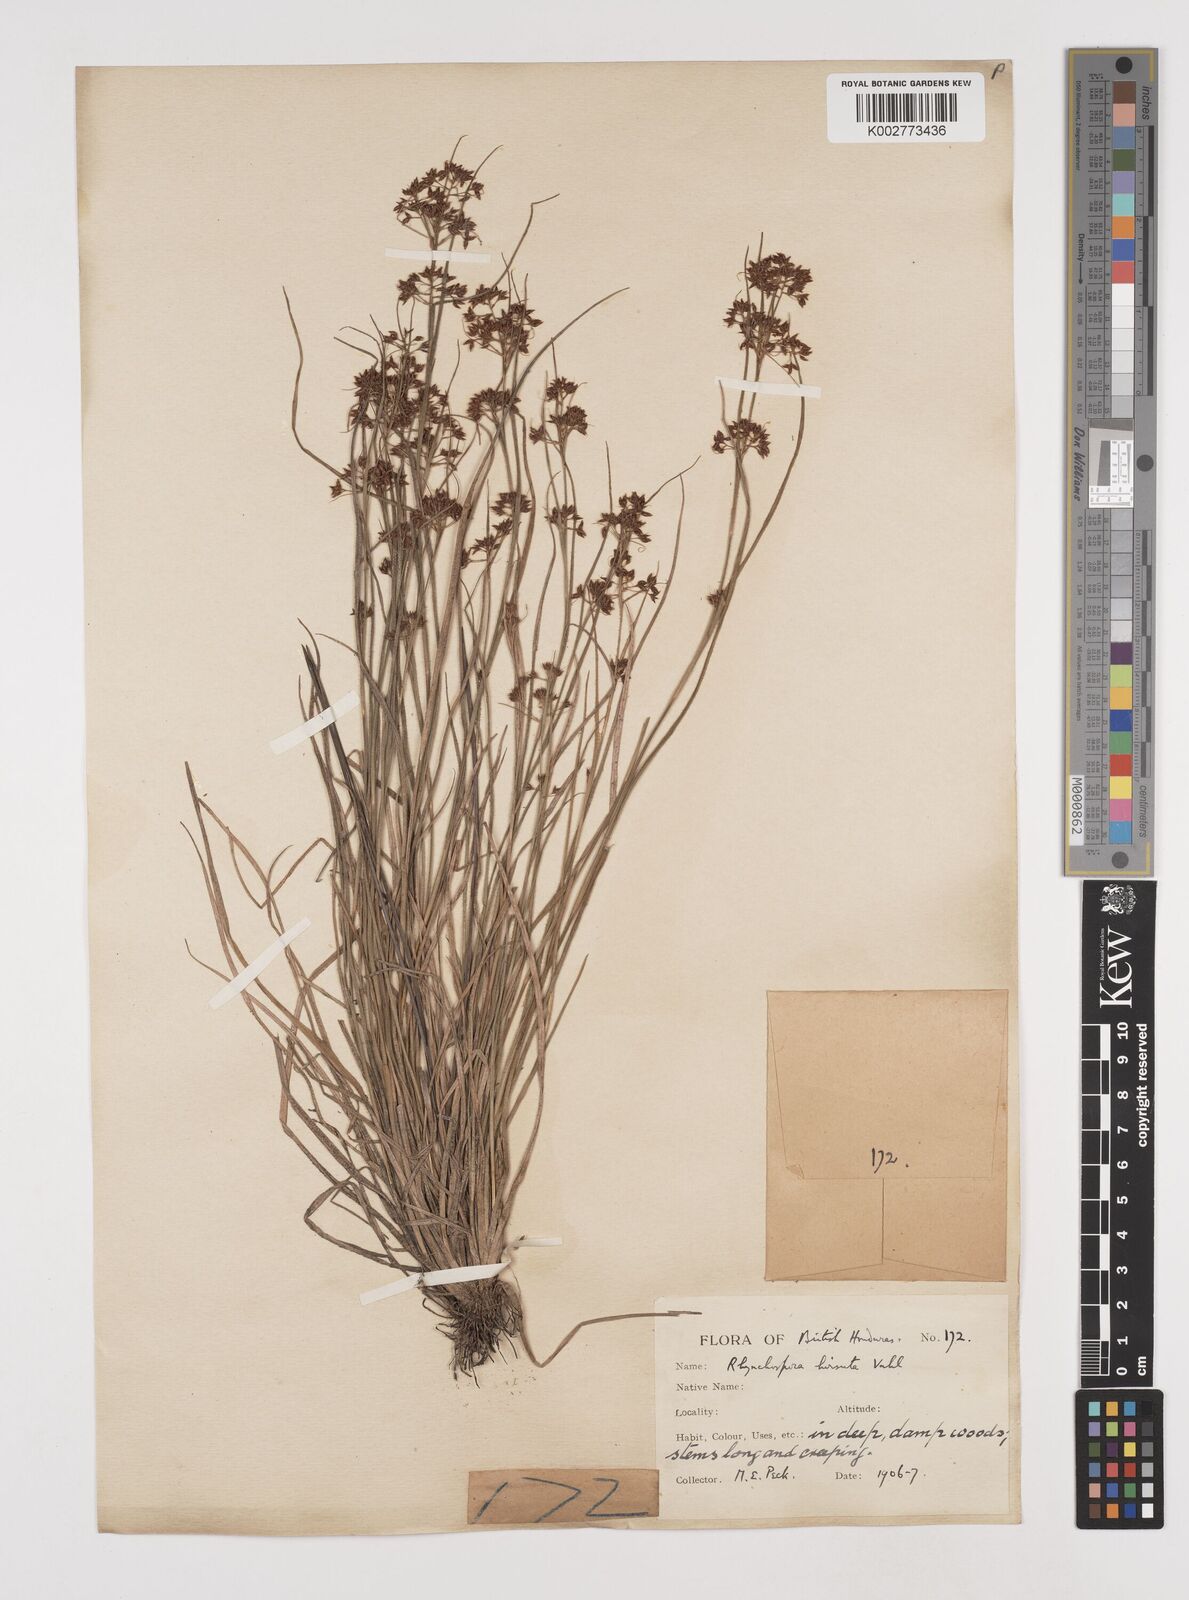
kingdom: Plantae
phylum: Tracheophyta
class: Liliopsida
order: Poales
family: Cyperaceae
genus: Rhynchospora
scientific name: Rhynchospora hirsuta
